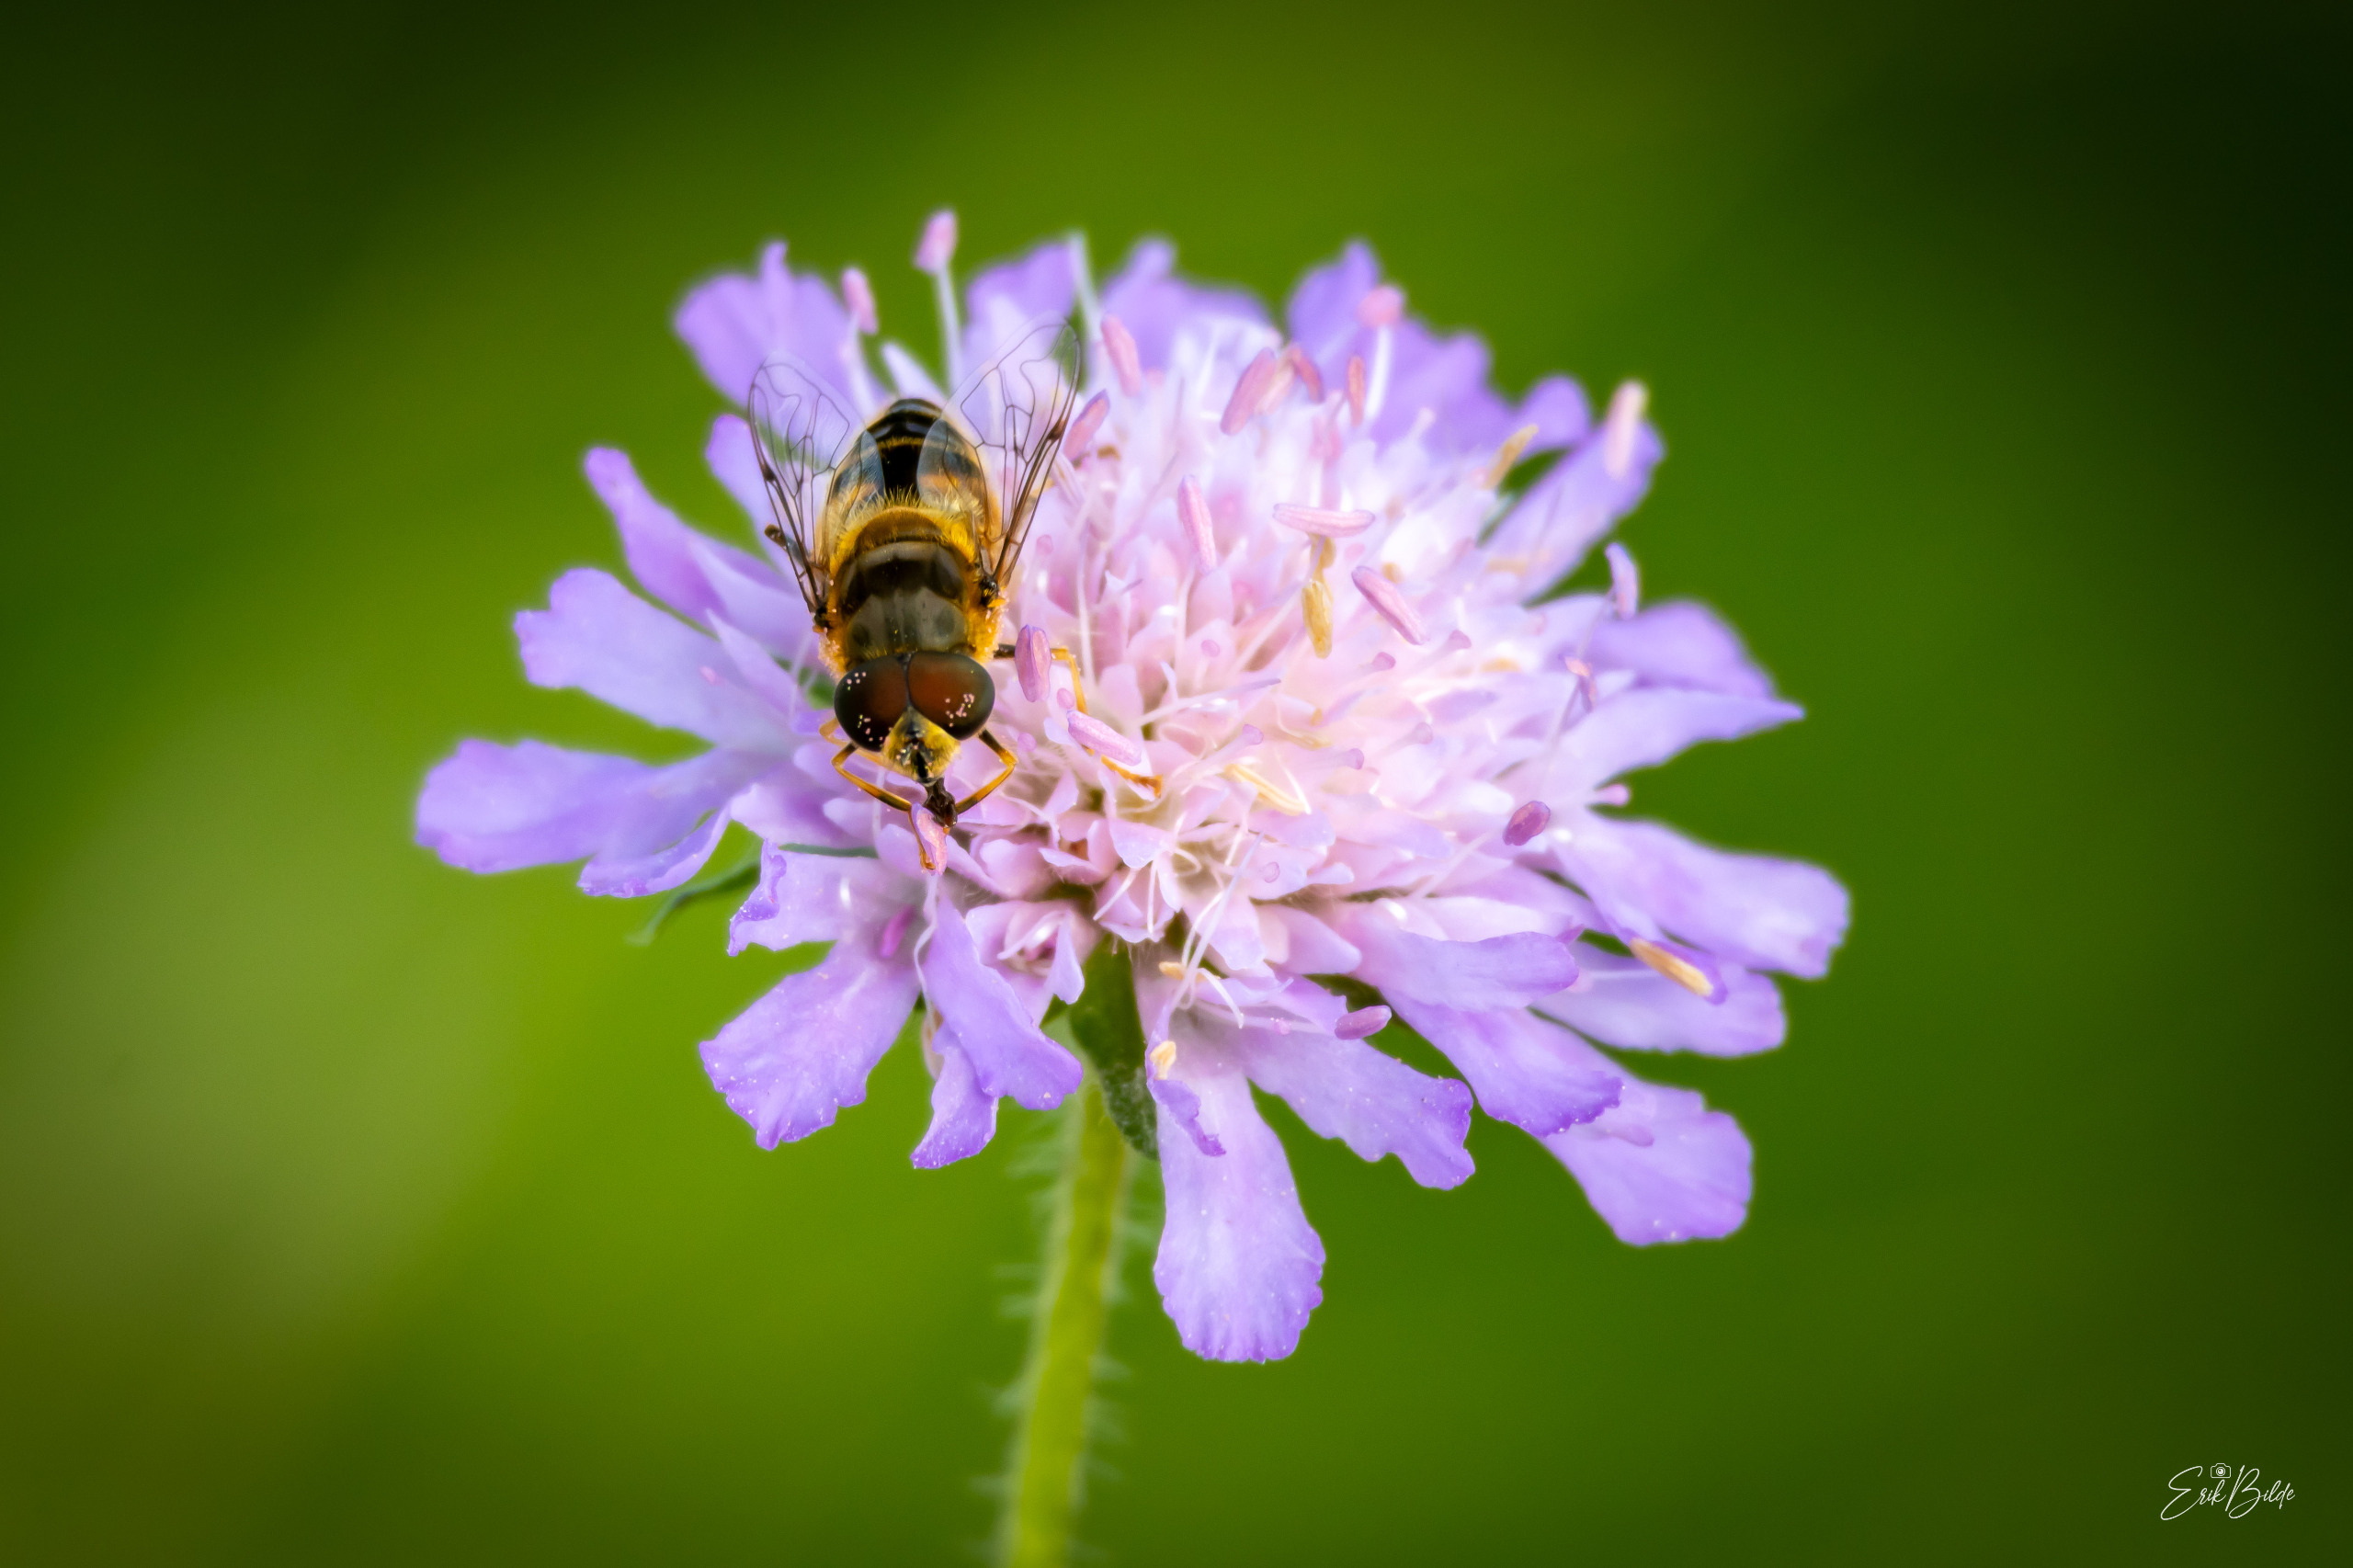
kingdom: Animalia
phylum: Arthropoda
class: Insecta
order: Diptera
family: Syrphidae
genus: Eristalis
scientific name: Eristalis pertinax
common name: Gulfodet dyndflue
